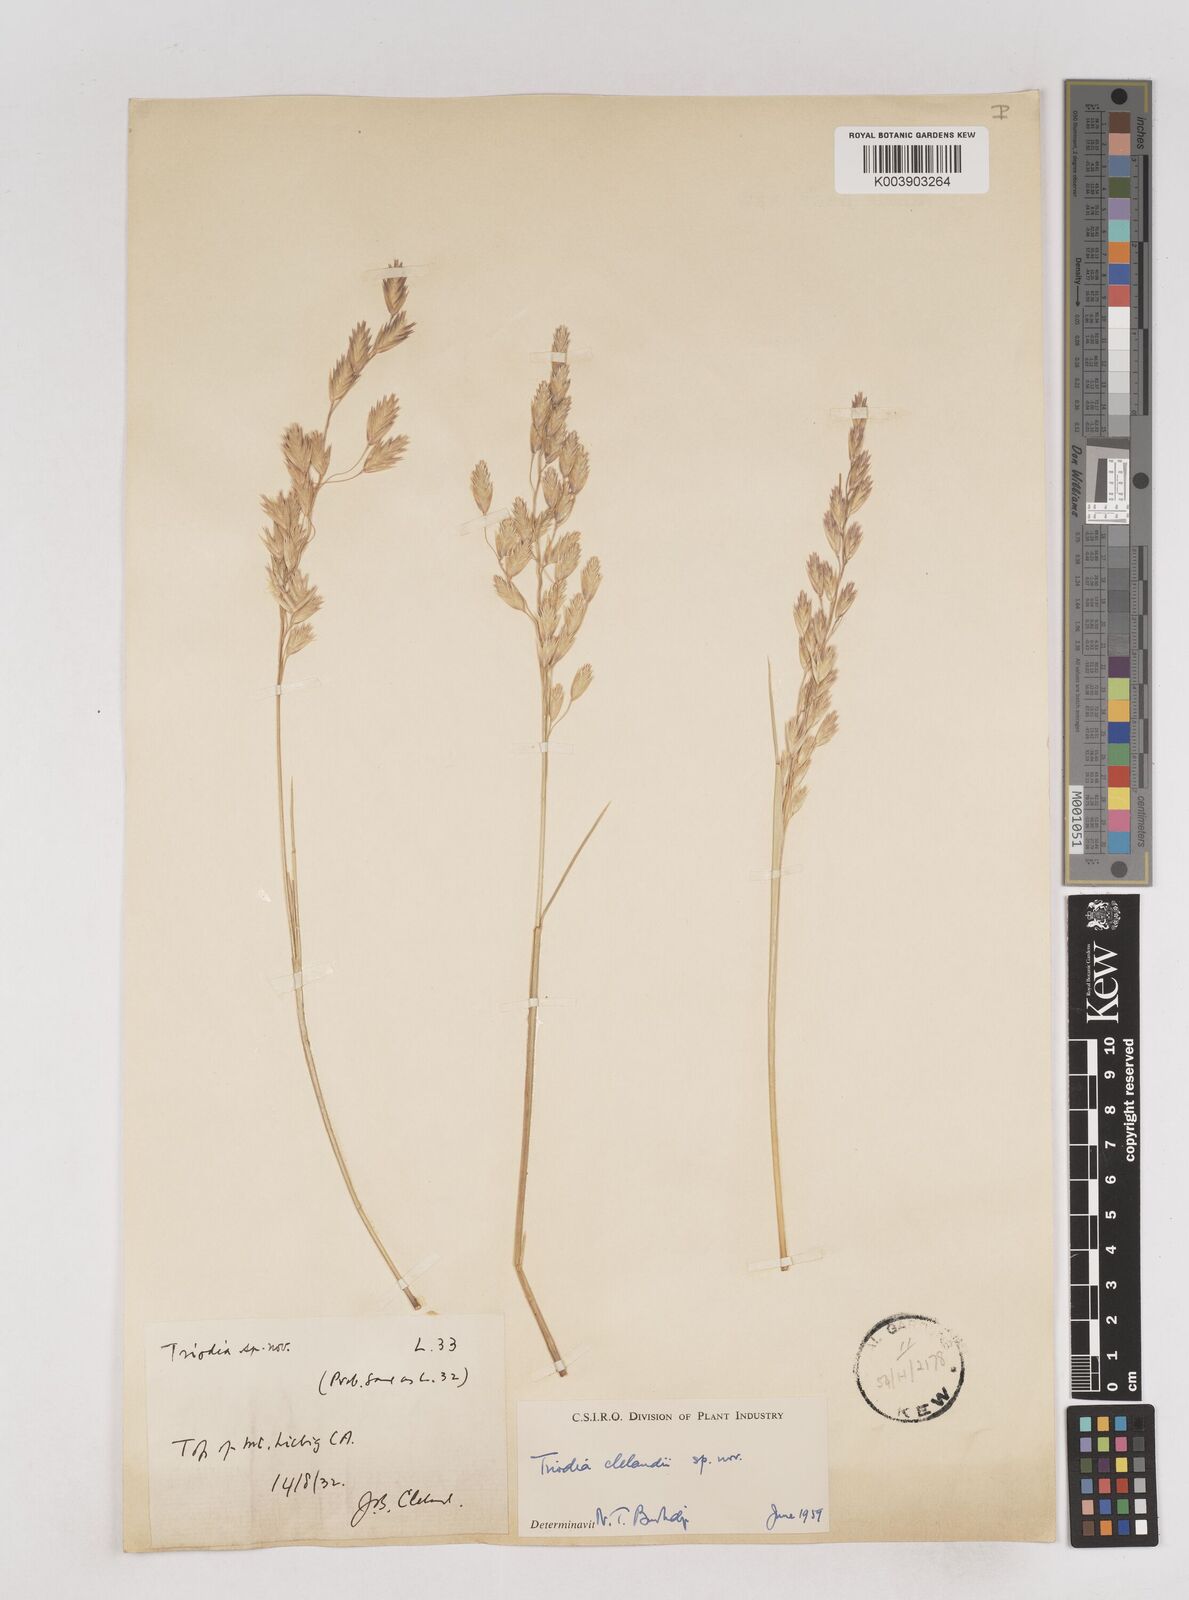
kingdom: Plantae
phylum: Tracheophyta
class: Liliopsida
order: Poales
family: Poaceae
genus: Triodia
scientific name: Triodia brizoides
